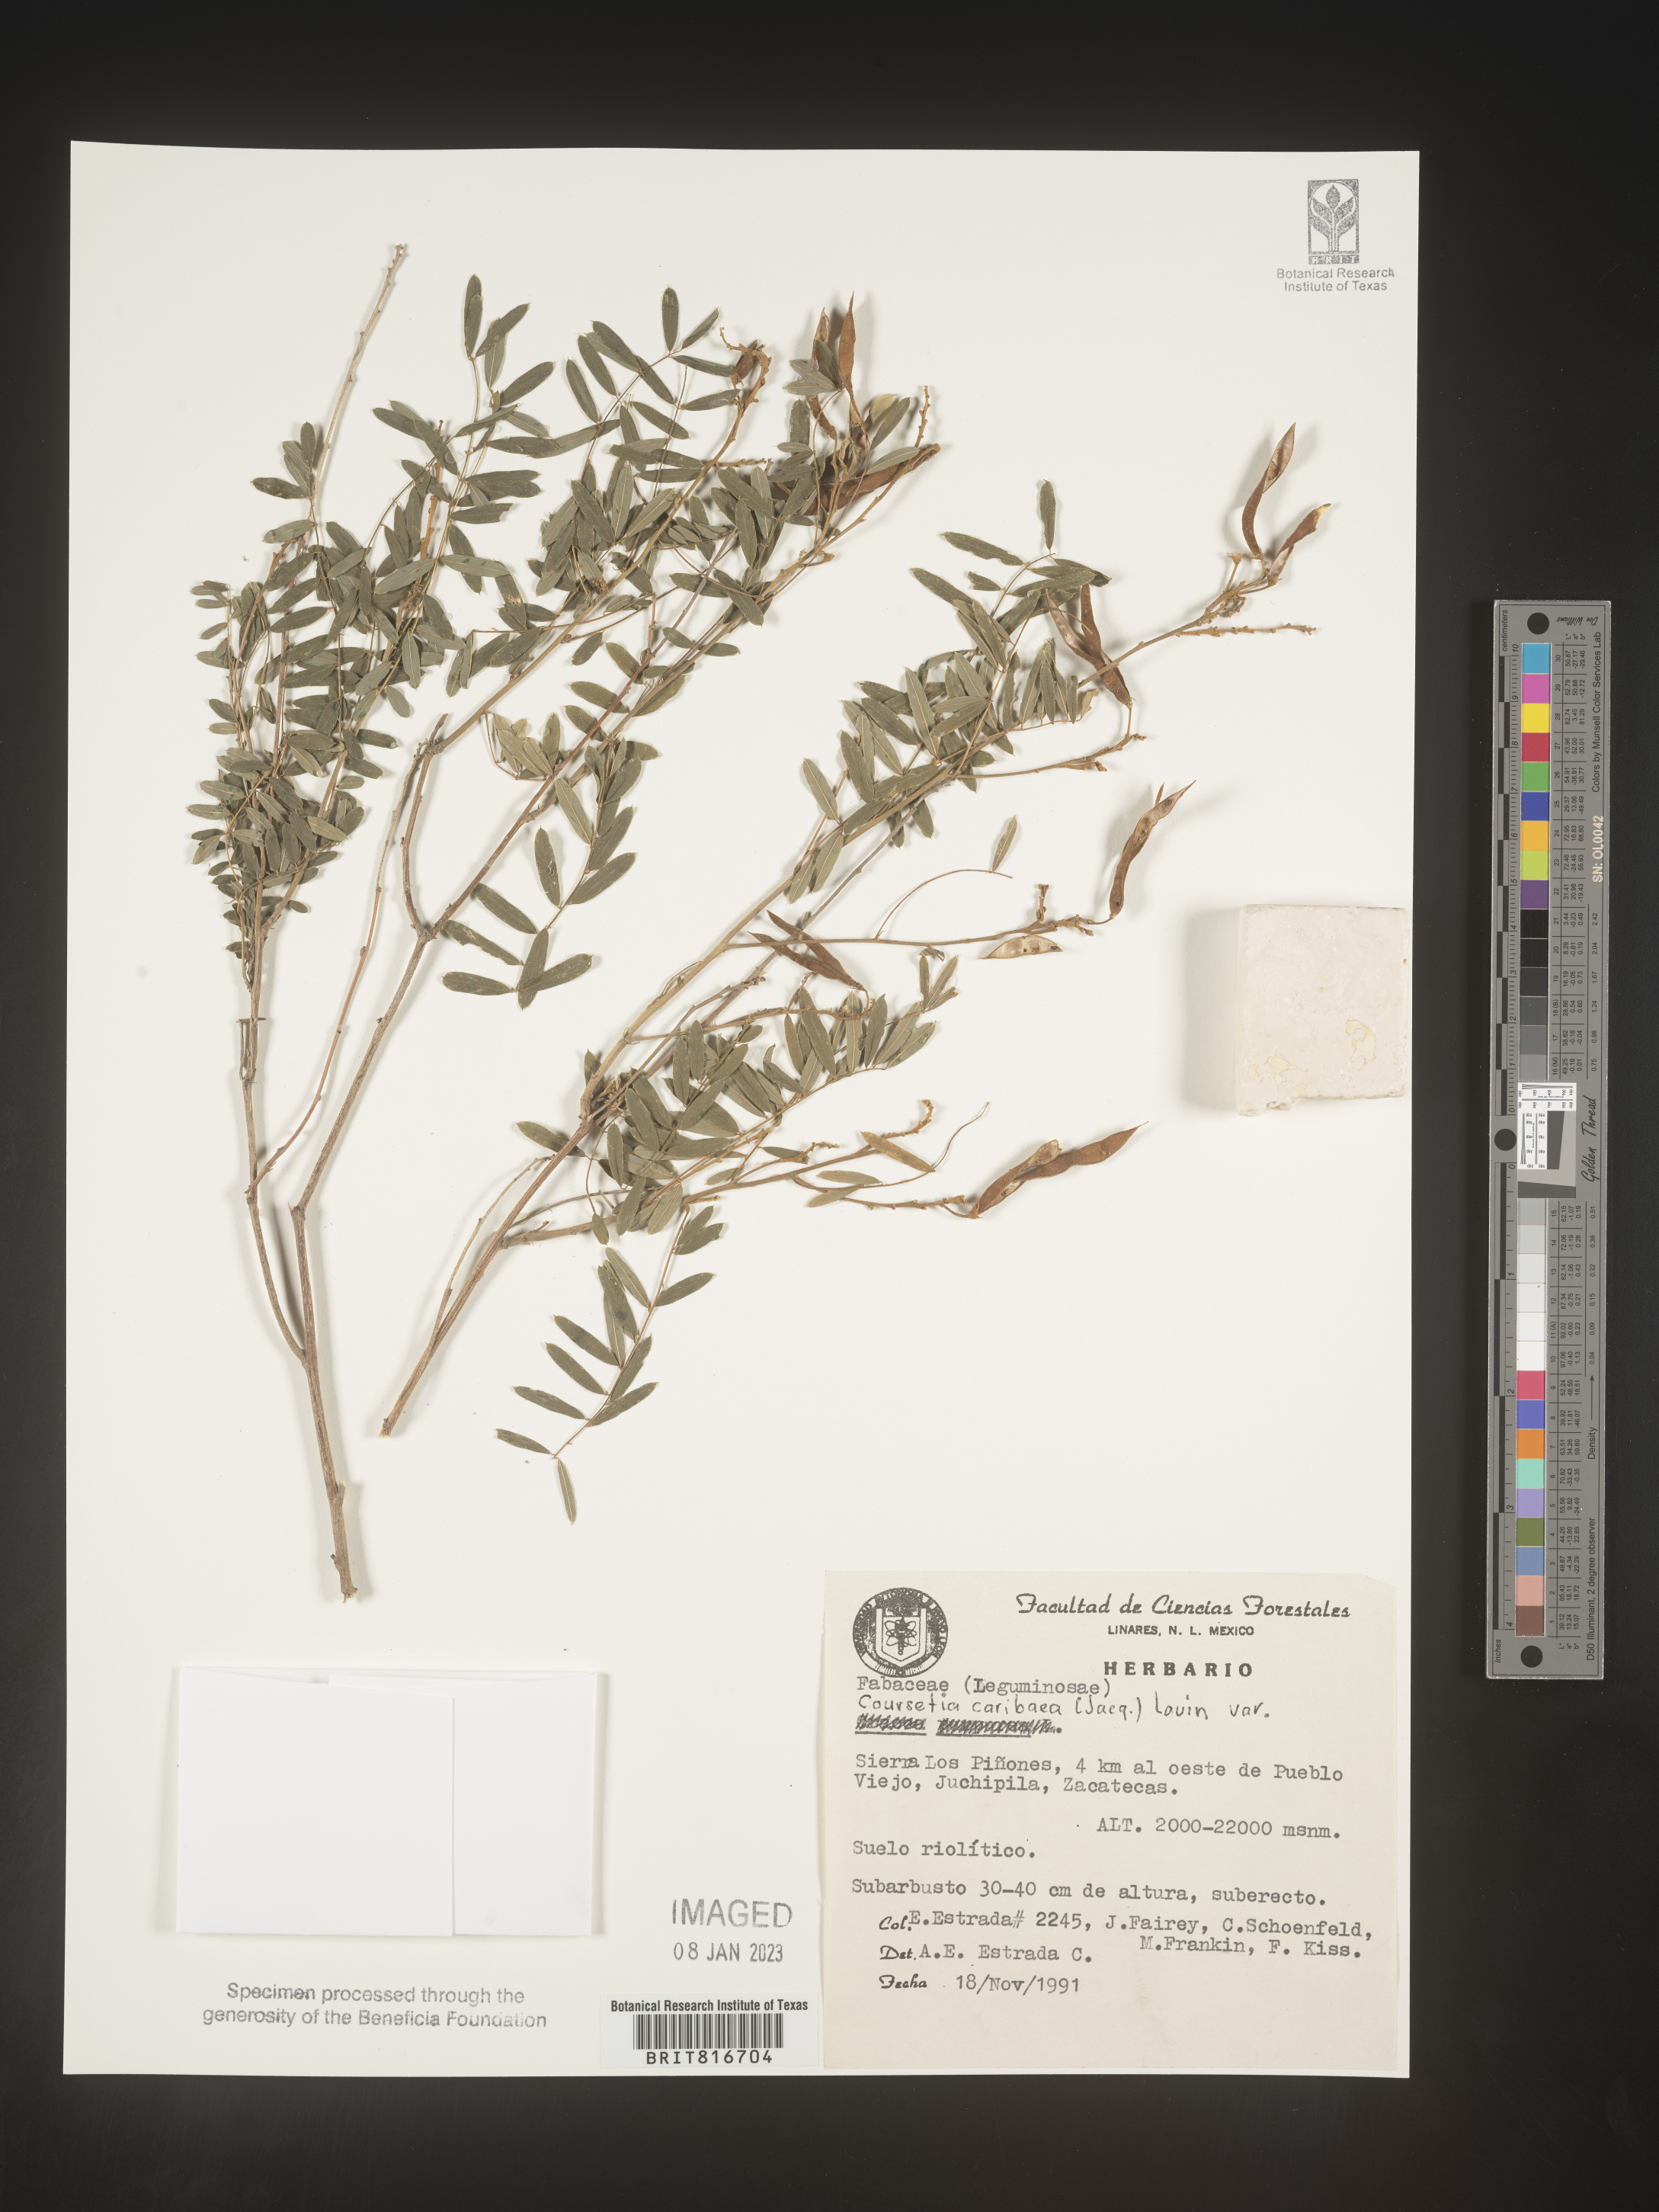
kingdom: Plantae
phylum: Tracheophyta
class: Magnoliopsida
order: Fabales
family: Fabaceae
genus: Coursetia
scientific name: Coursetia
